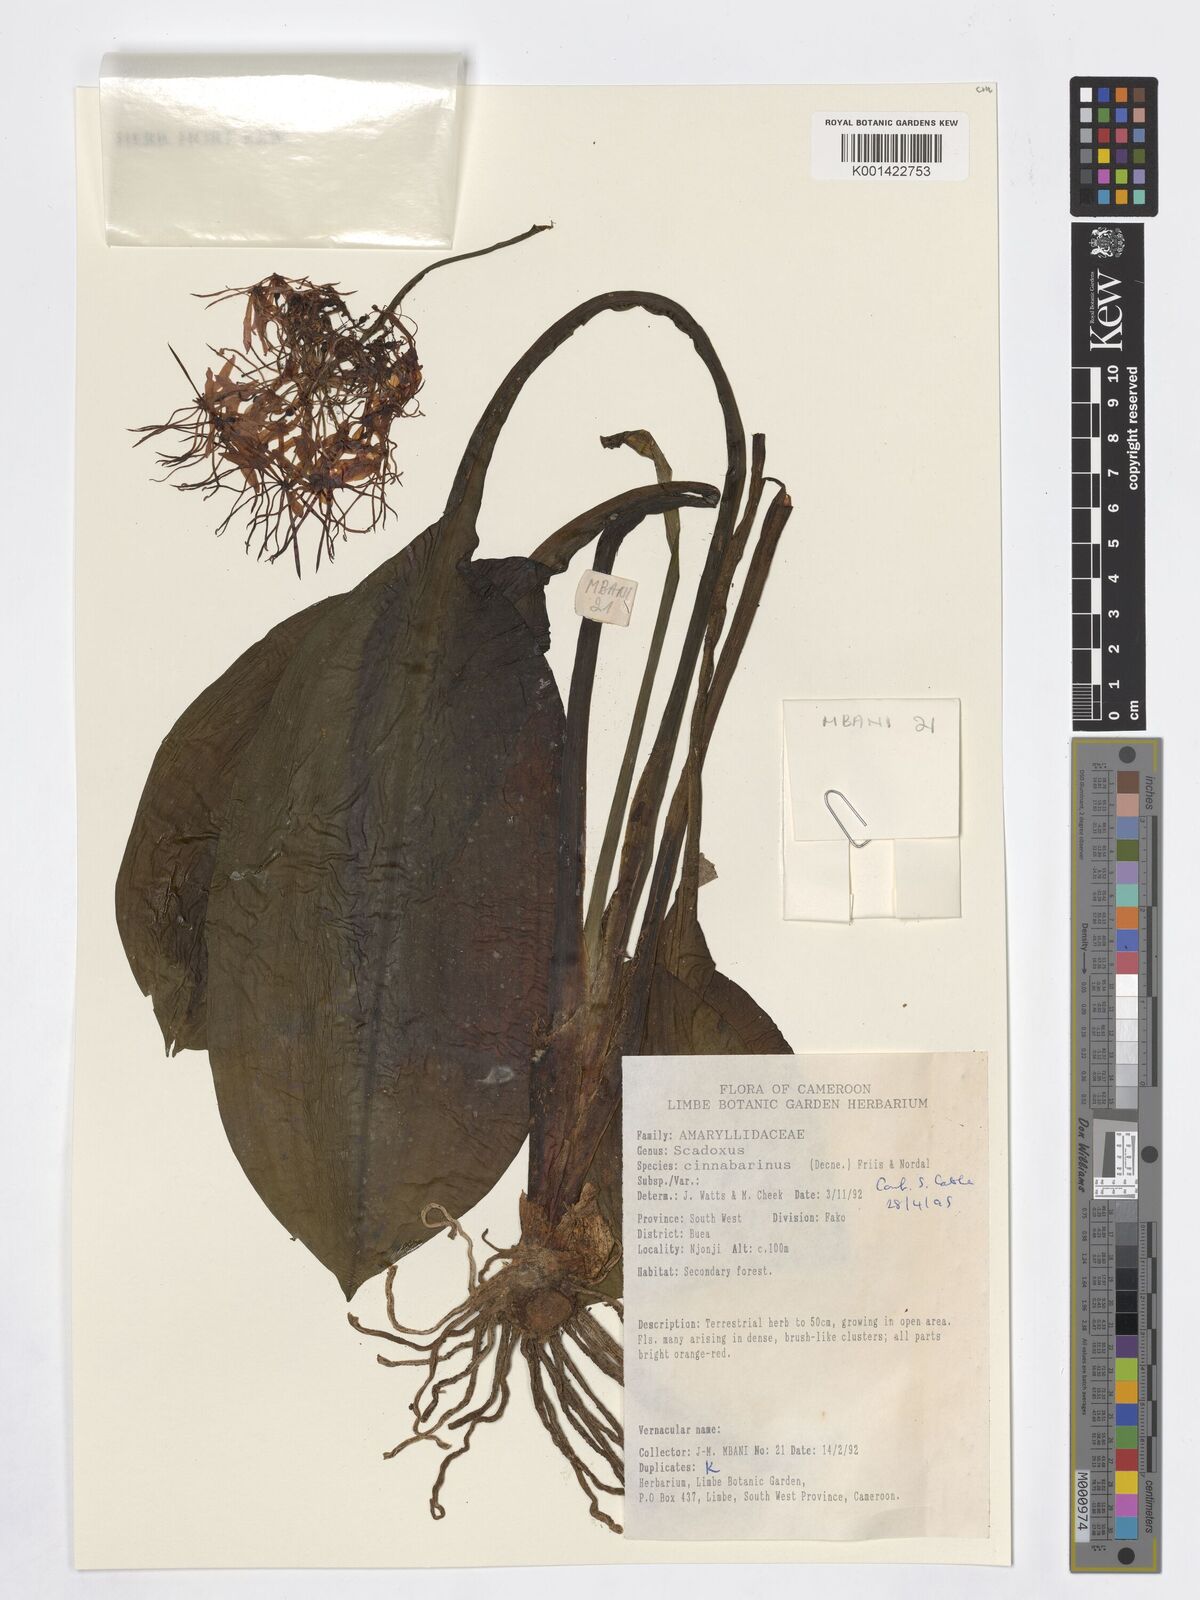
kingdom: Plantae
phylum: Tracheophyta
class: Liliopsida
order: Asparagales
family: Amaryllidaceae
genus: Scadoxus
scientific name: Scadoxus cinnabarinus
